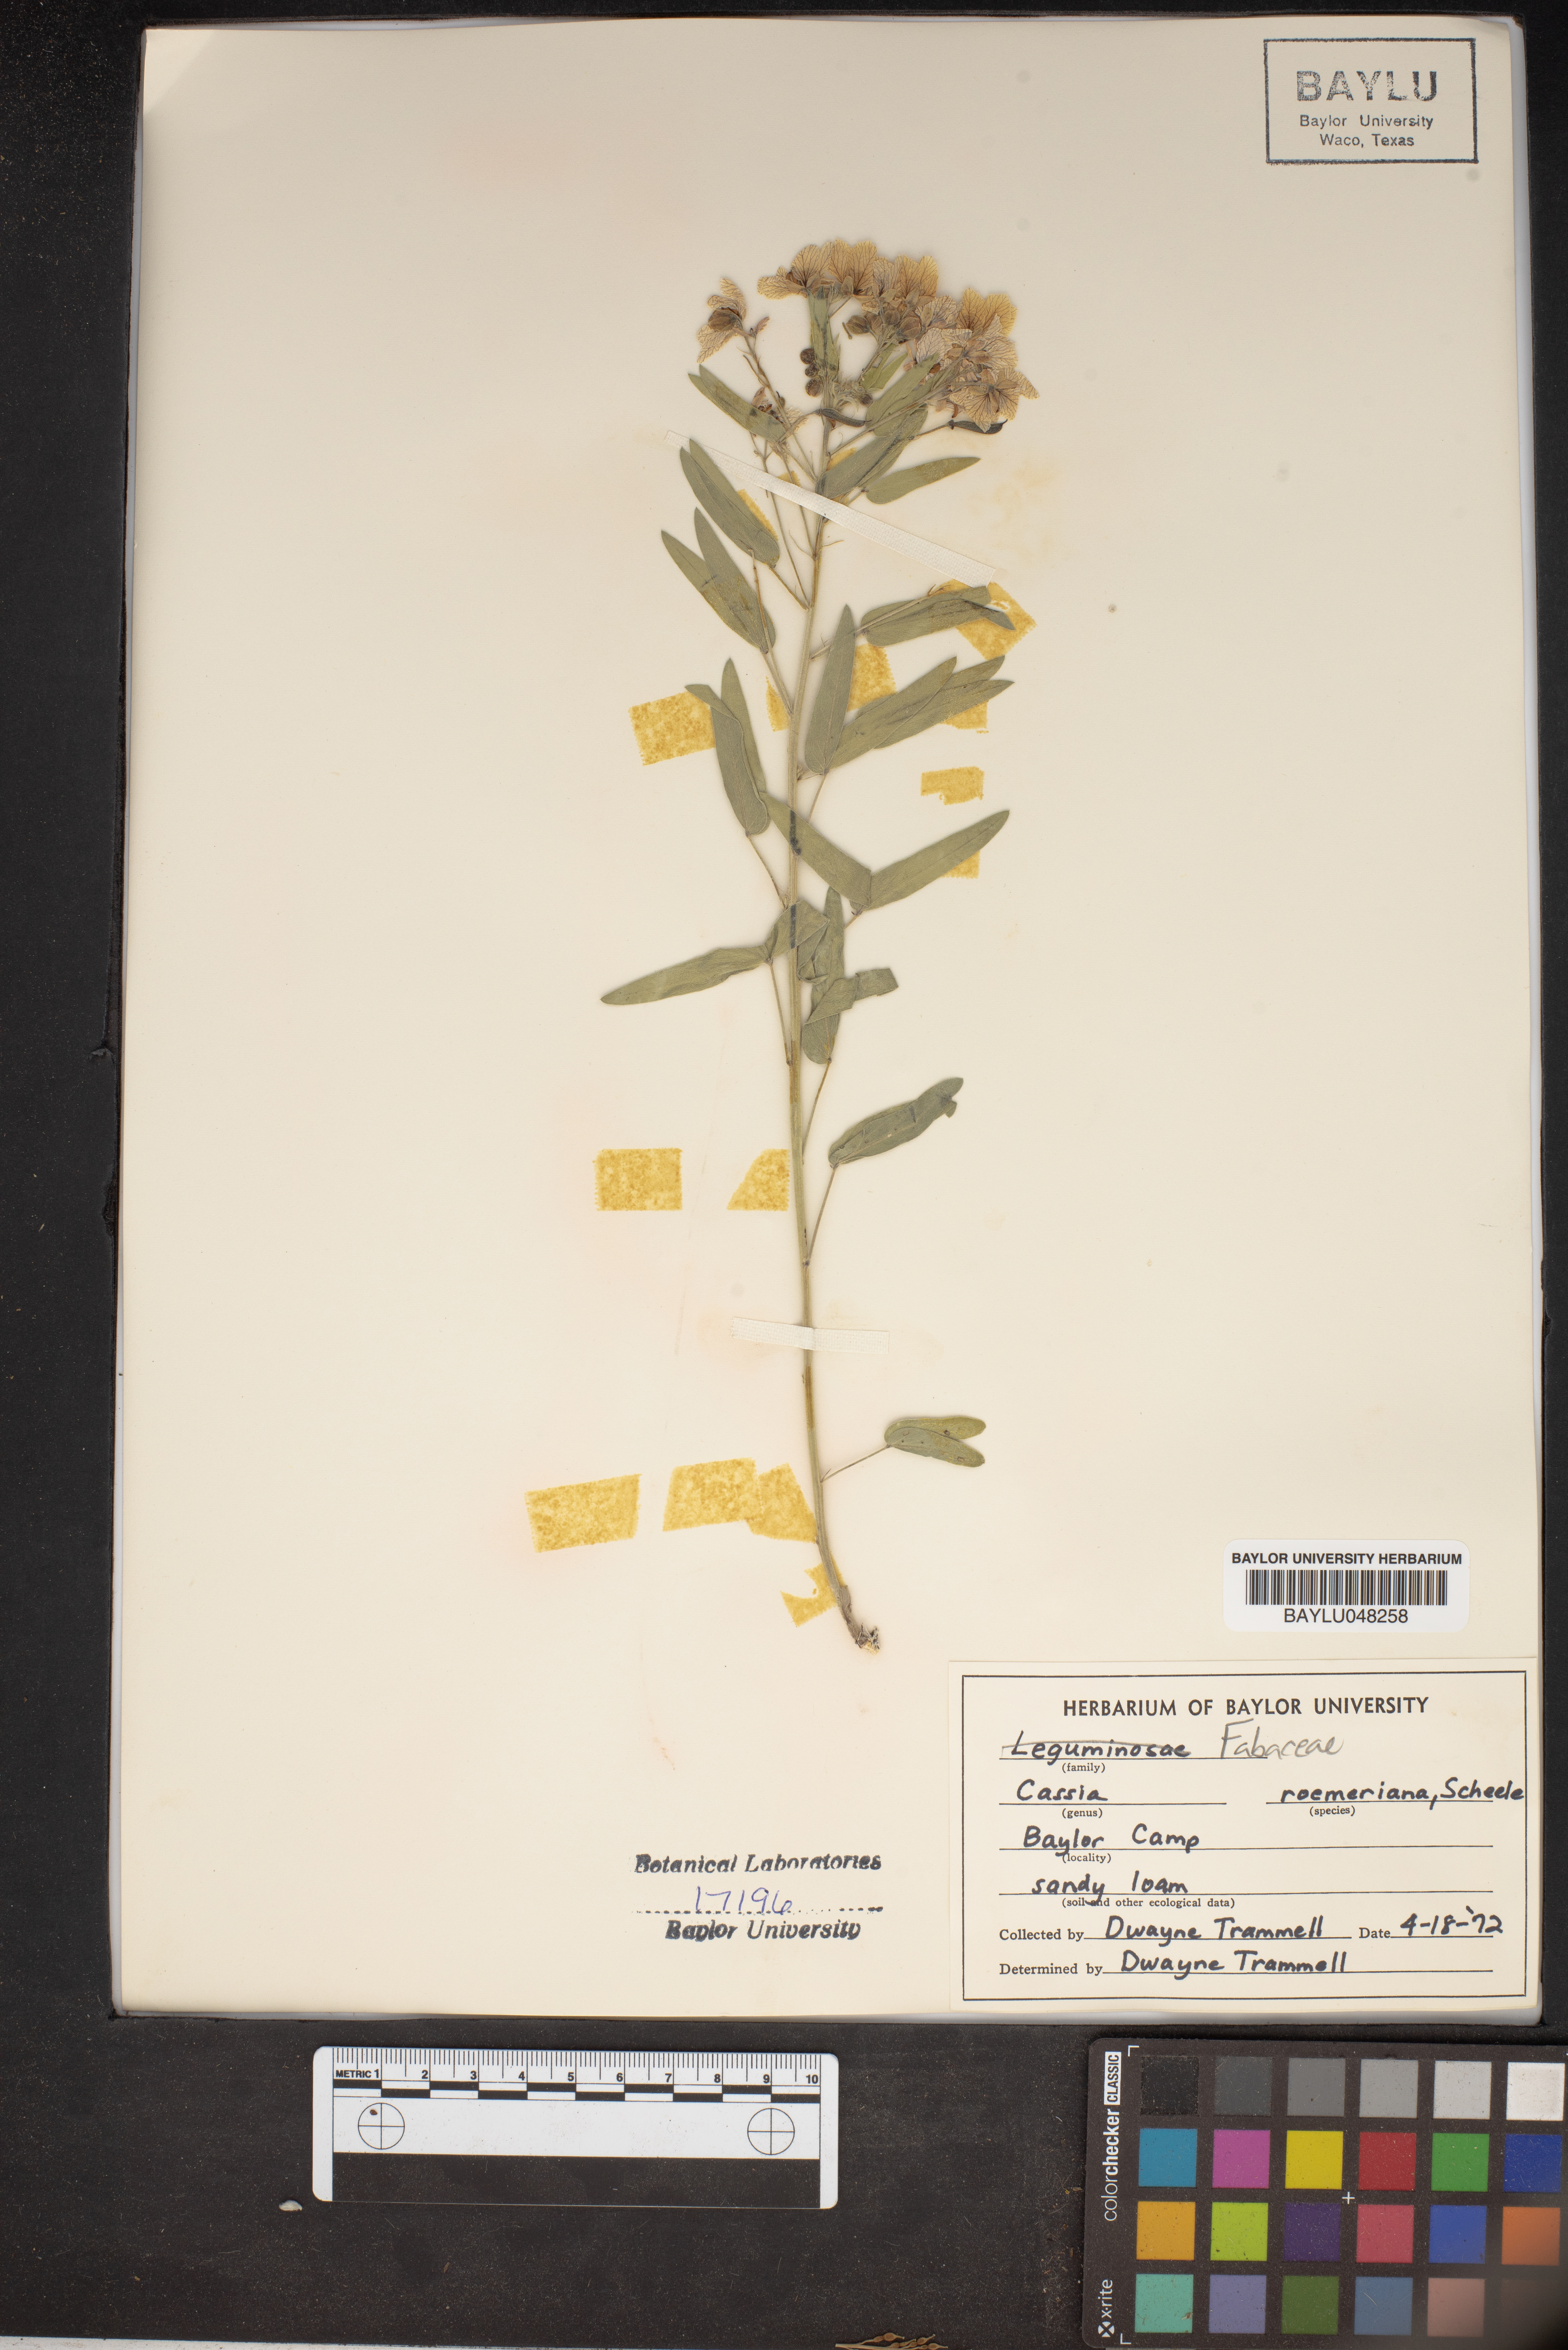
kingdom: Plantae
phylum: Tracheophyta
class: Magnoliopsida
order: Fabales
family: Fabaceae
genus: Senna
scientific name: Senna roemeriana
